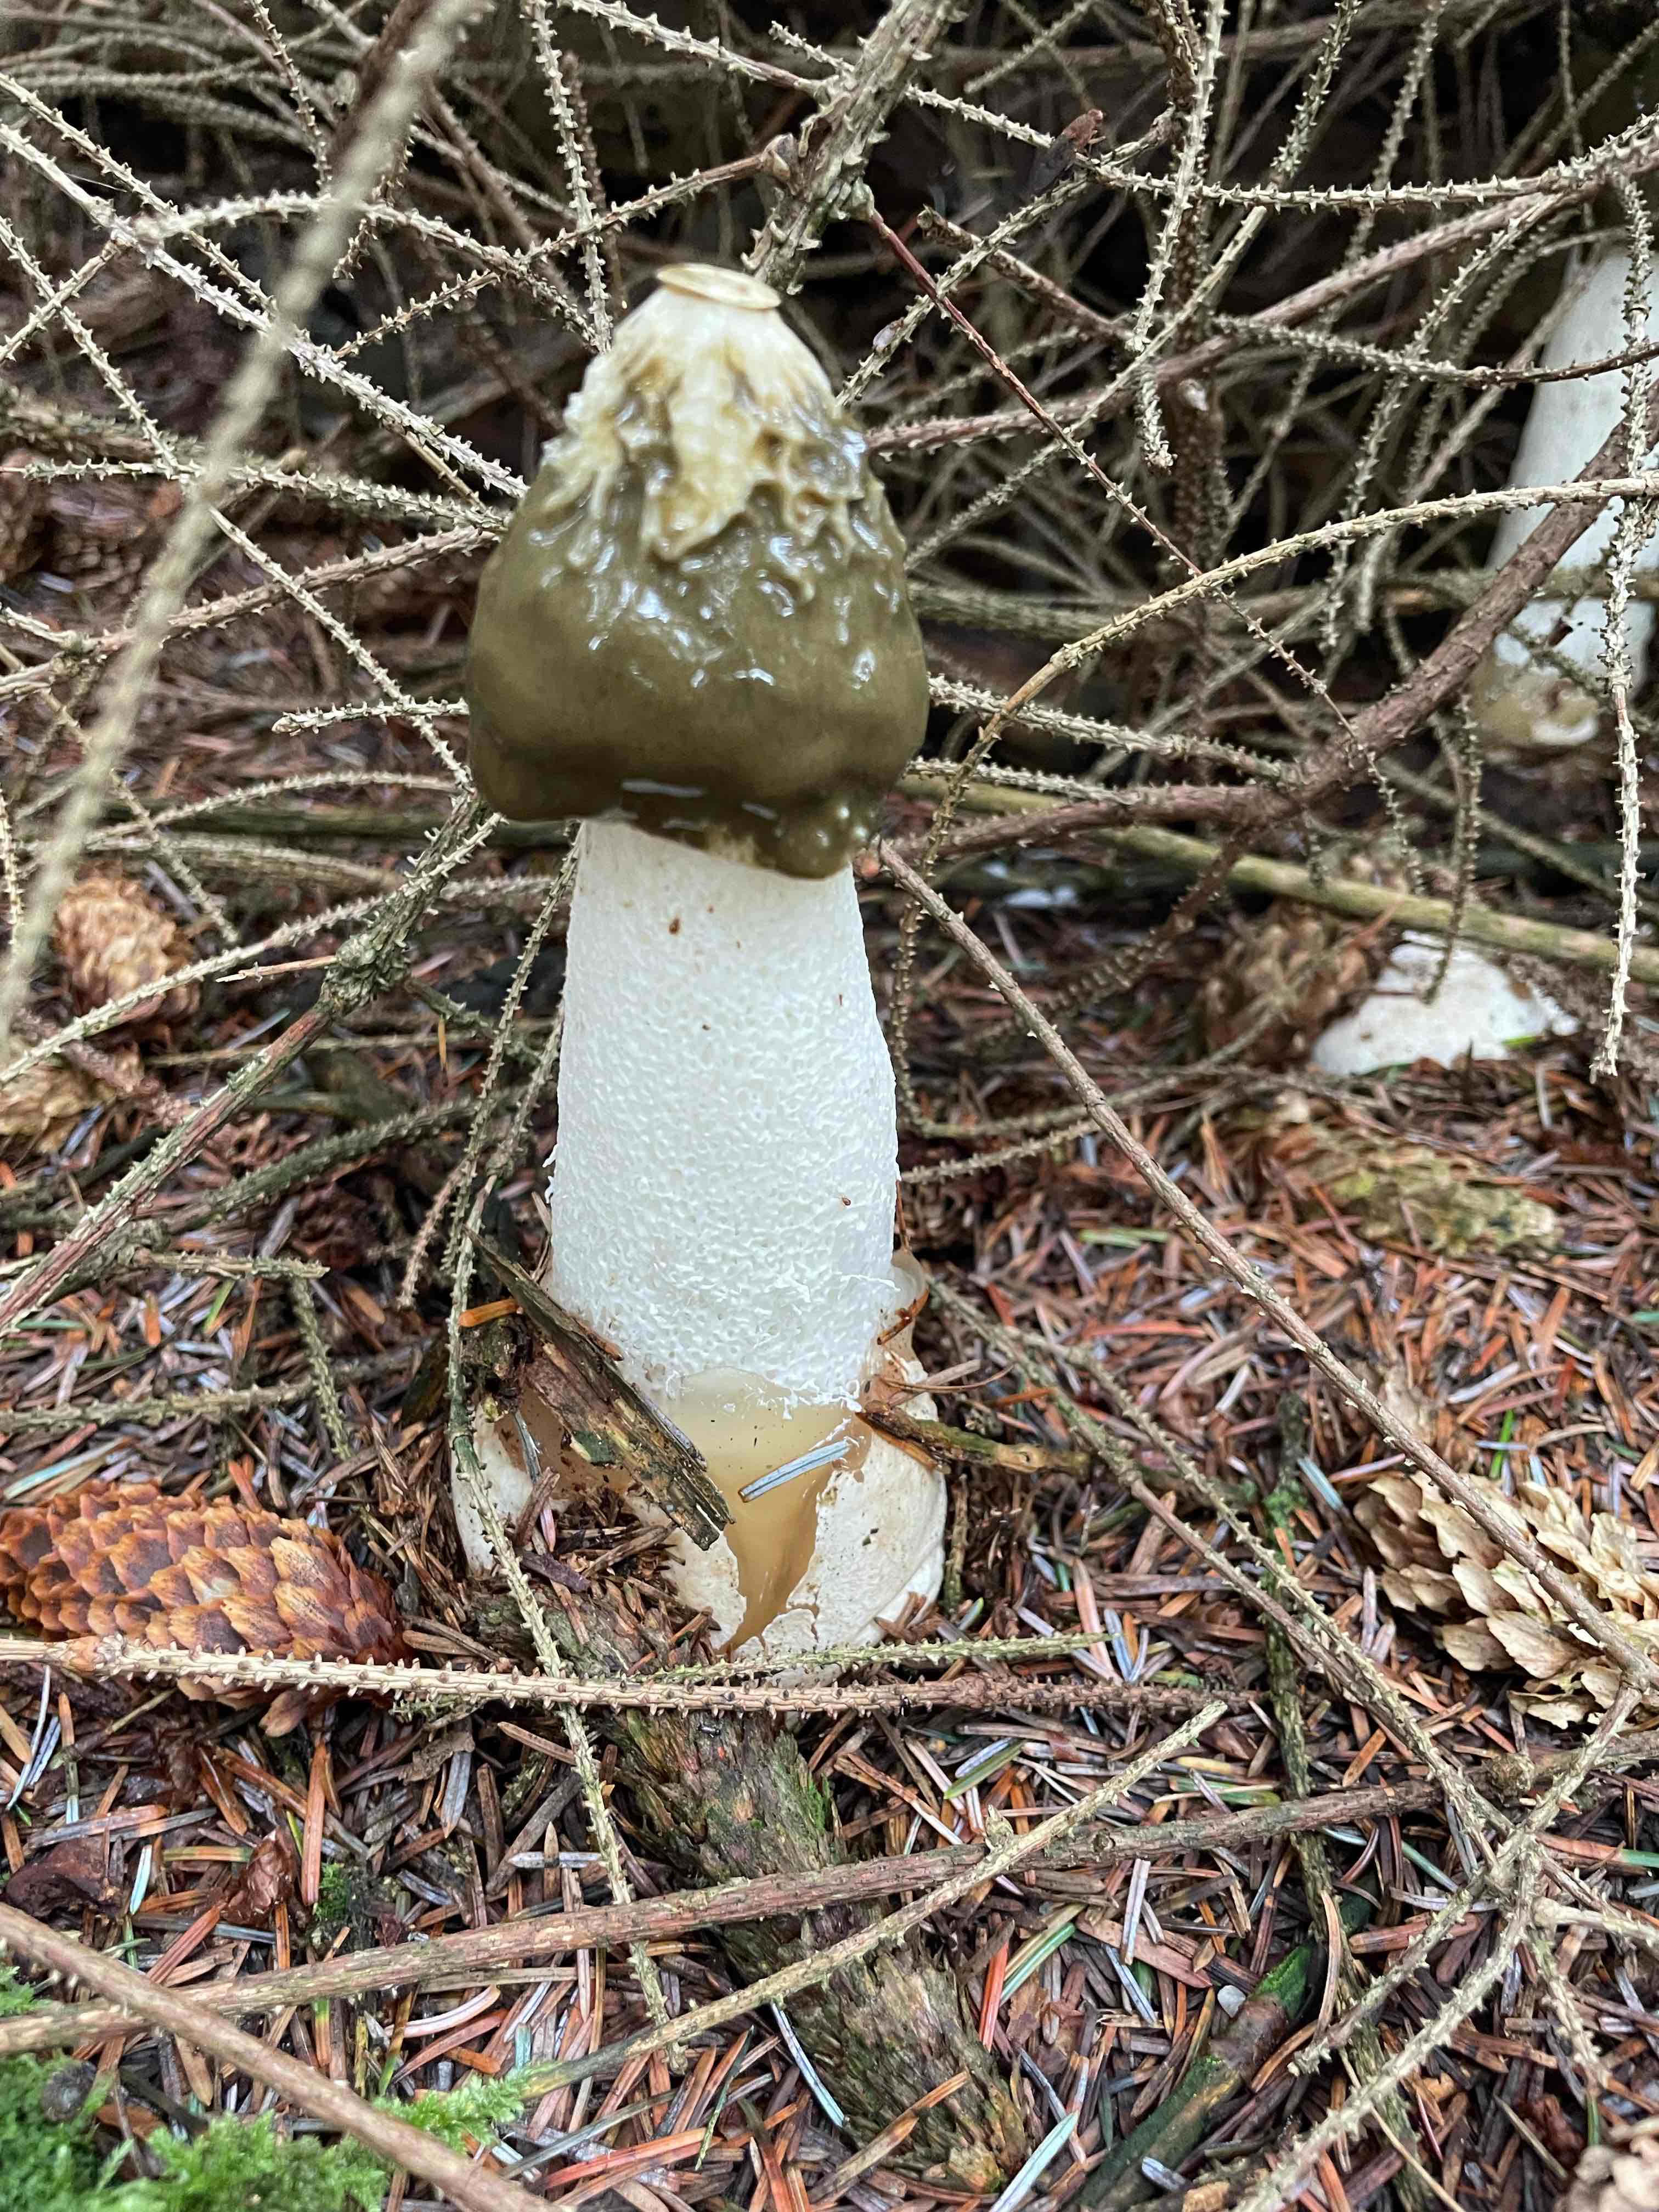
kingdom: Fungi
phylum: Basidiomycota
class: Agaricomycetes
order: Phallales
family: Phallaceae
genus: Phallus
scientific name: Phallus impudicus
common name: almindelig stinksvamp
